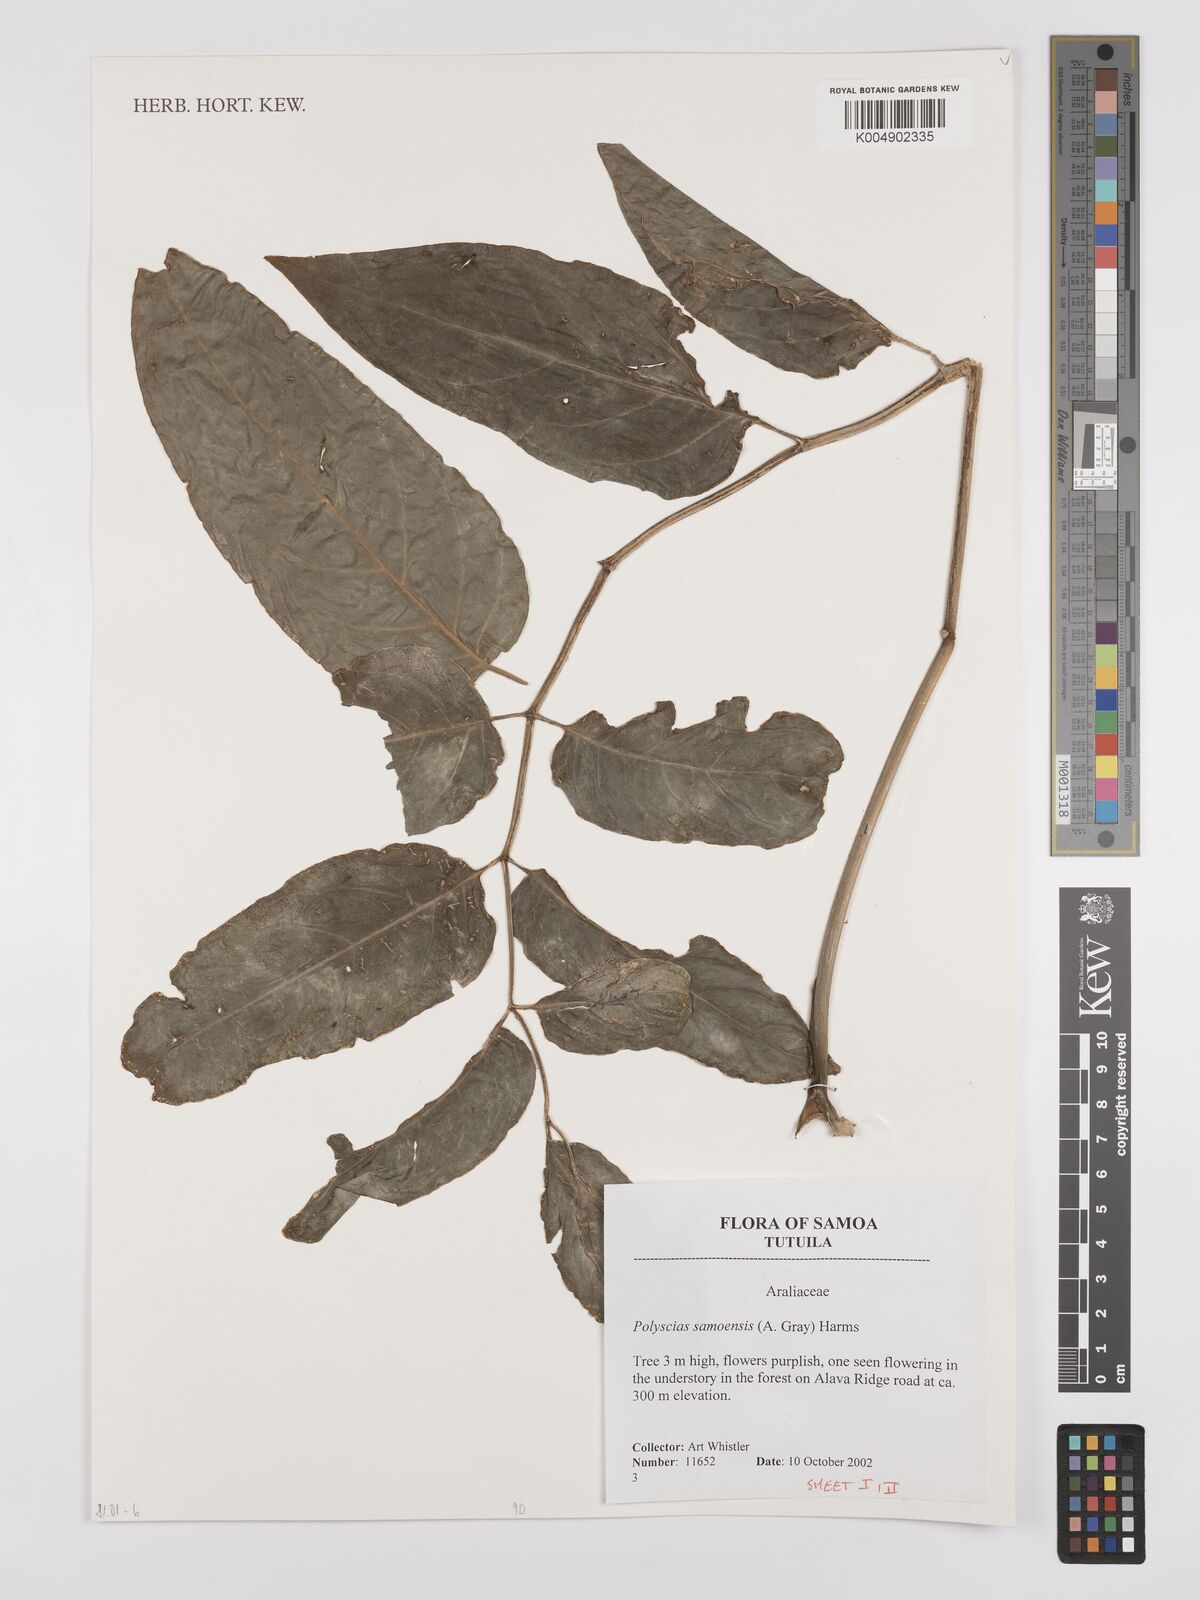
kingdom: Plantae
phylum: Tracheophyta
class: Magnoliopsida
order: Apiales
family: Araliaceae
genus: Polyscias
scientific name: Polyscias samoensis
